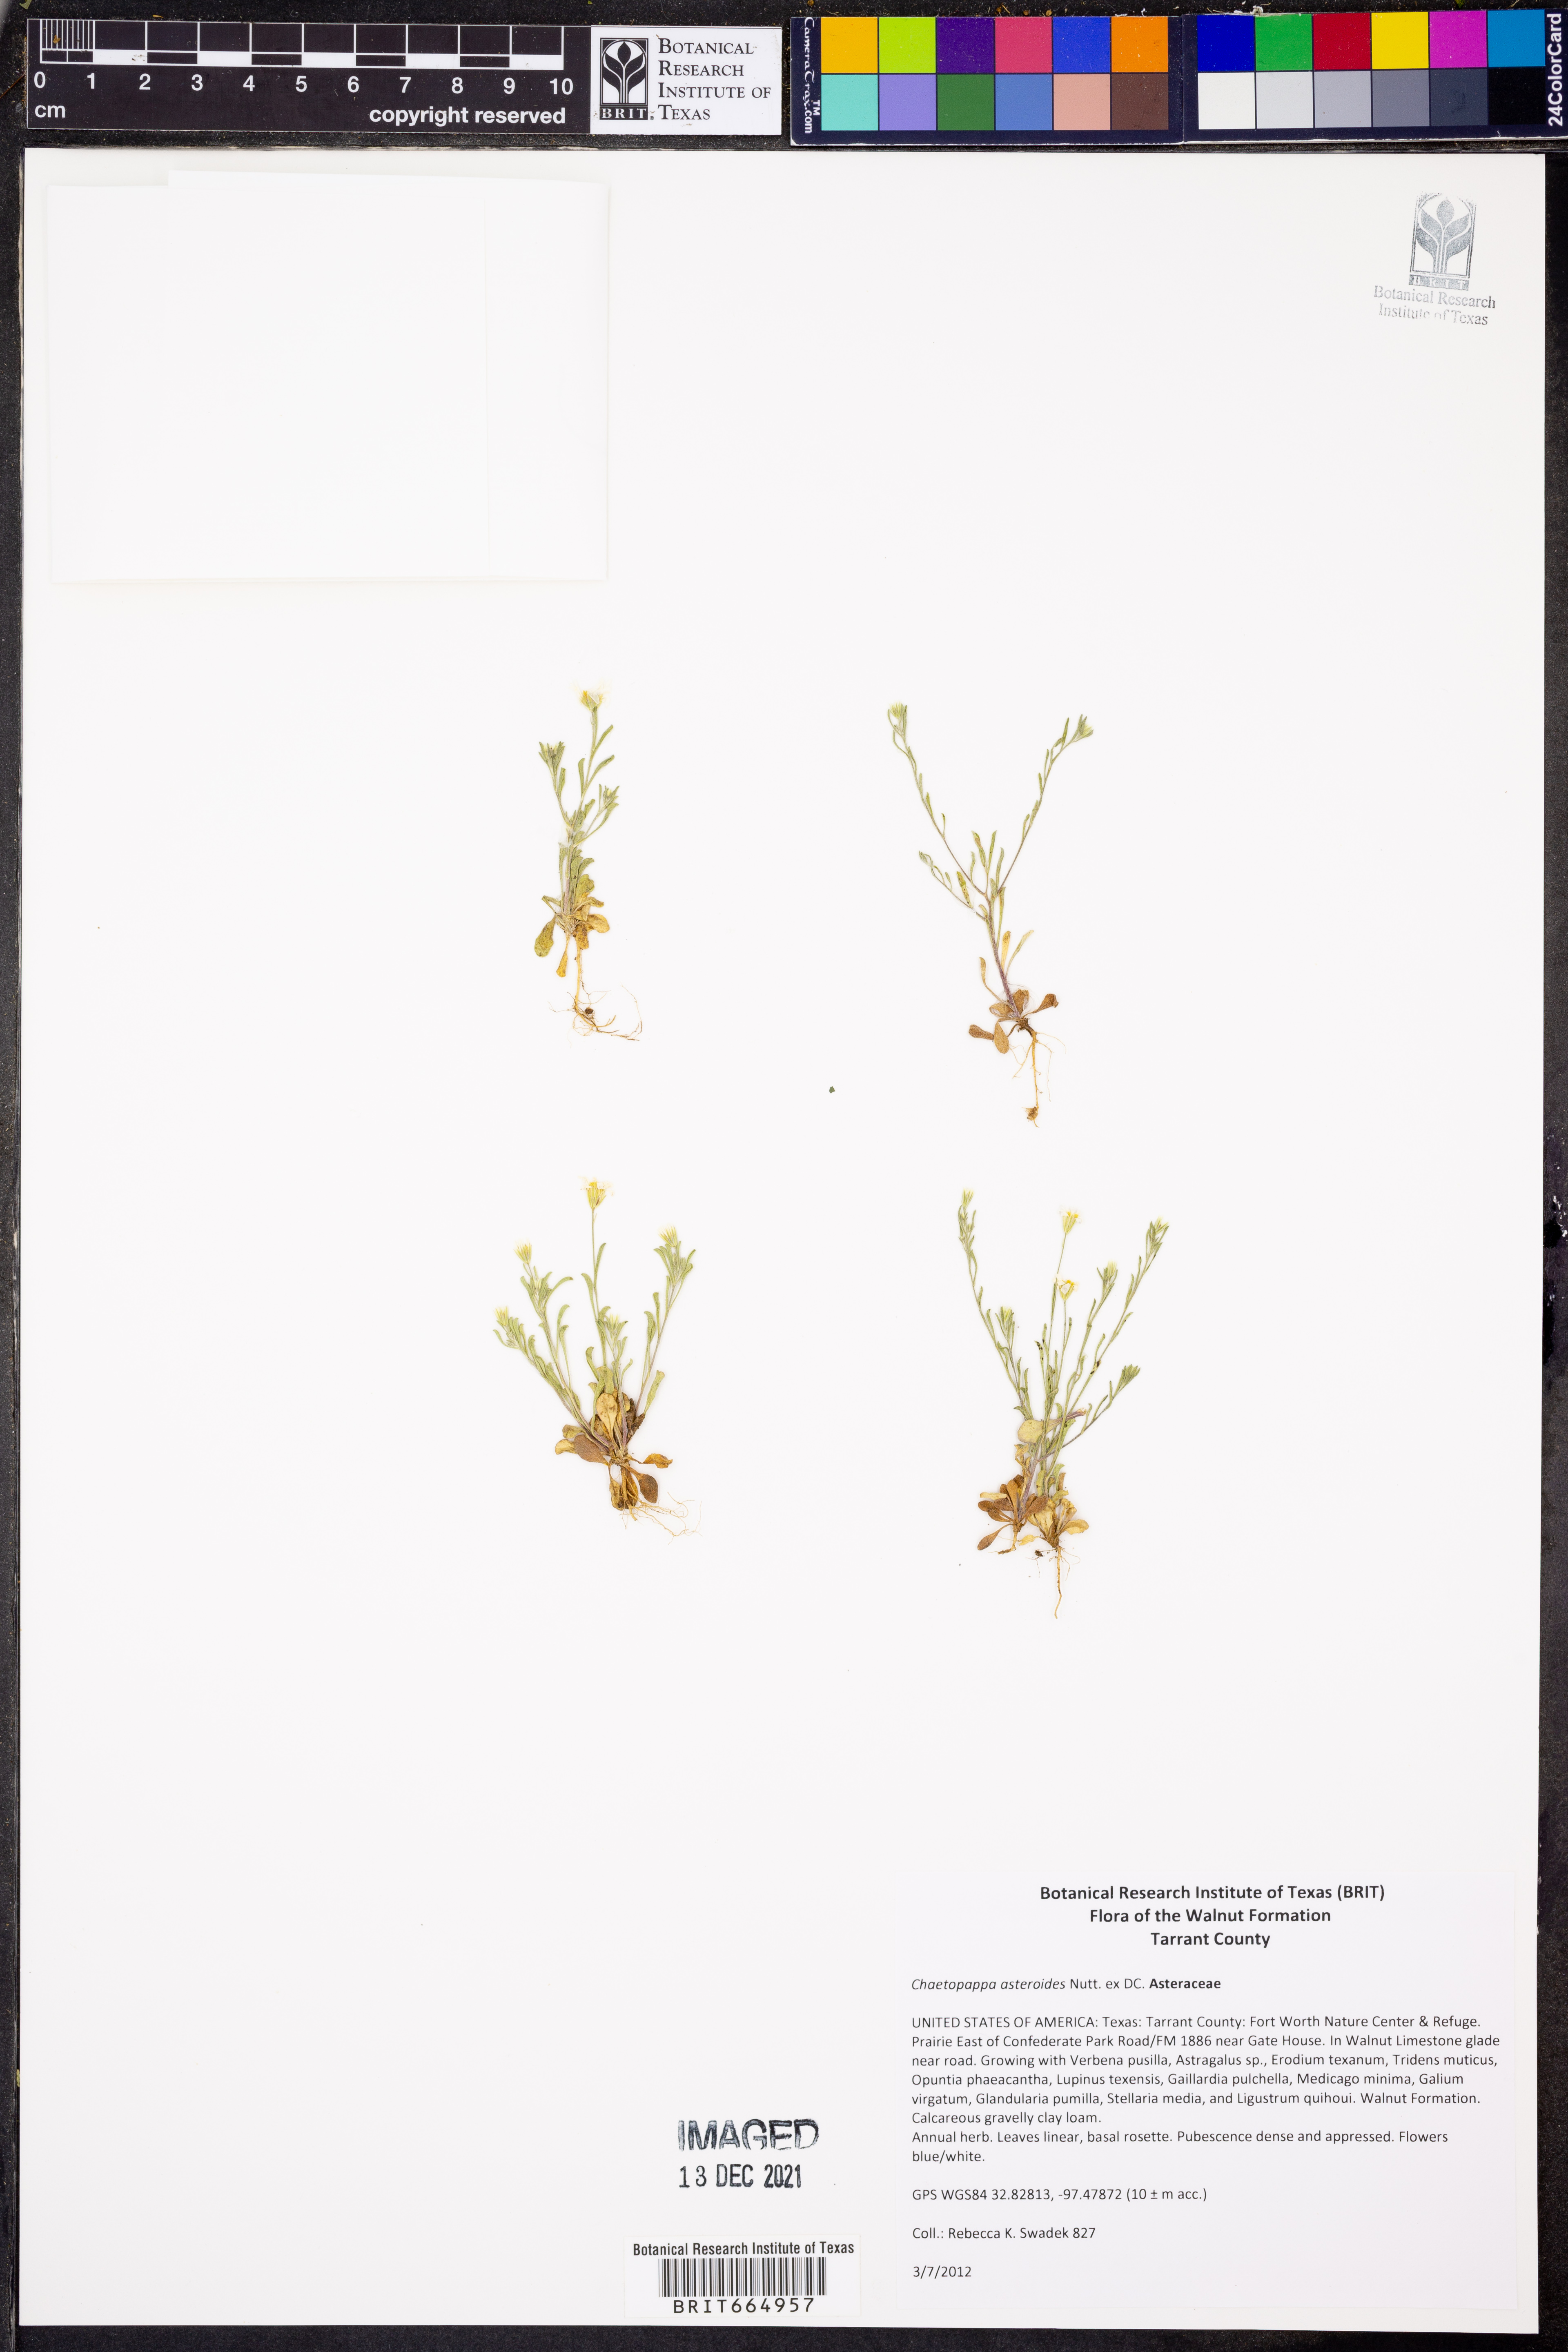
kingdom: Plantae
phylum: Tracheophyta
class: Magnoliopsida
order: Asterales
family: Asteraceae
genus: Chaetopappa
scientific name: Chaetopappa asteroides
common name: Tiny lazy daisy
